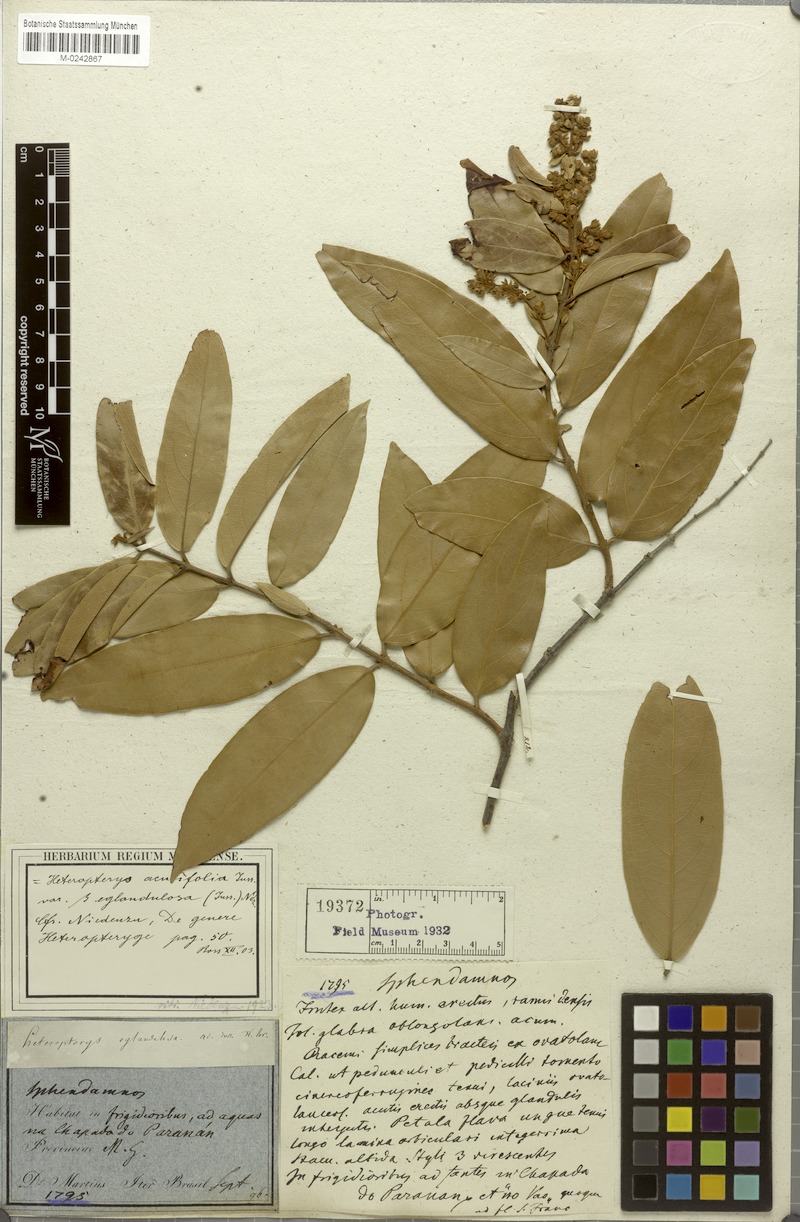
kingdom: Plantae
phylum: Tracheophyta
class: Magnoliopsida
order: Malpighiales
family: Malpighiaceae
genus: Heteropterys
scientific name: Heteropterys eglandulosa
